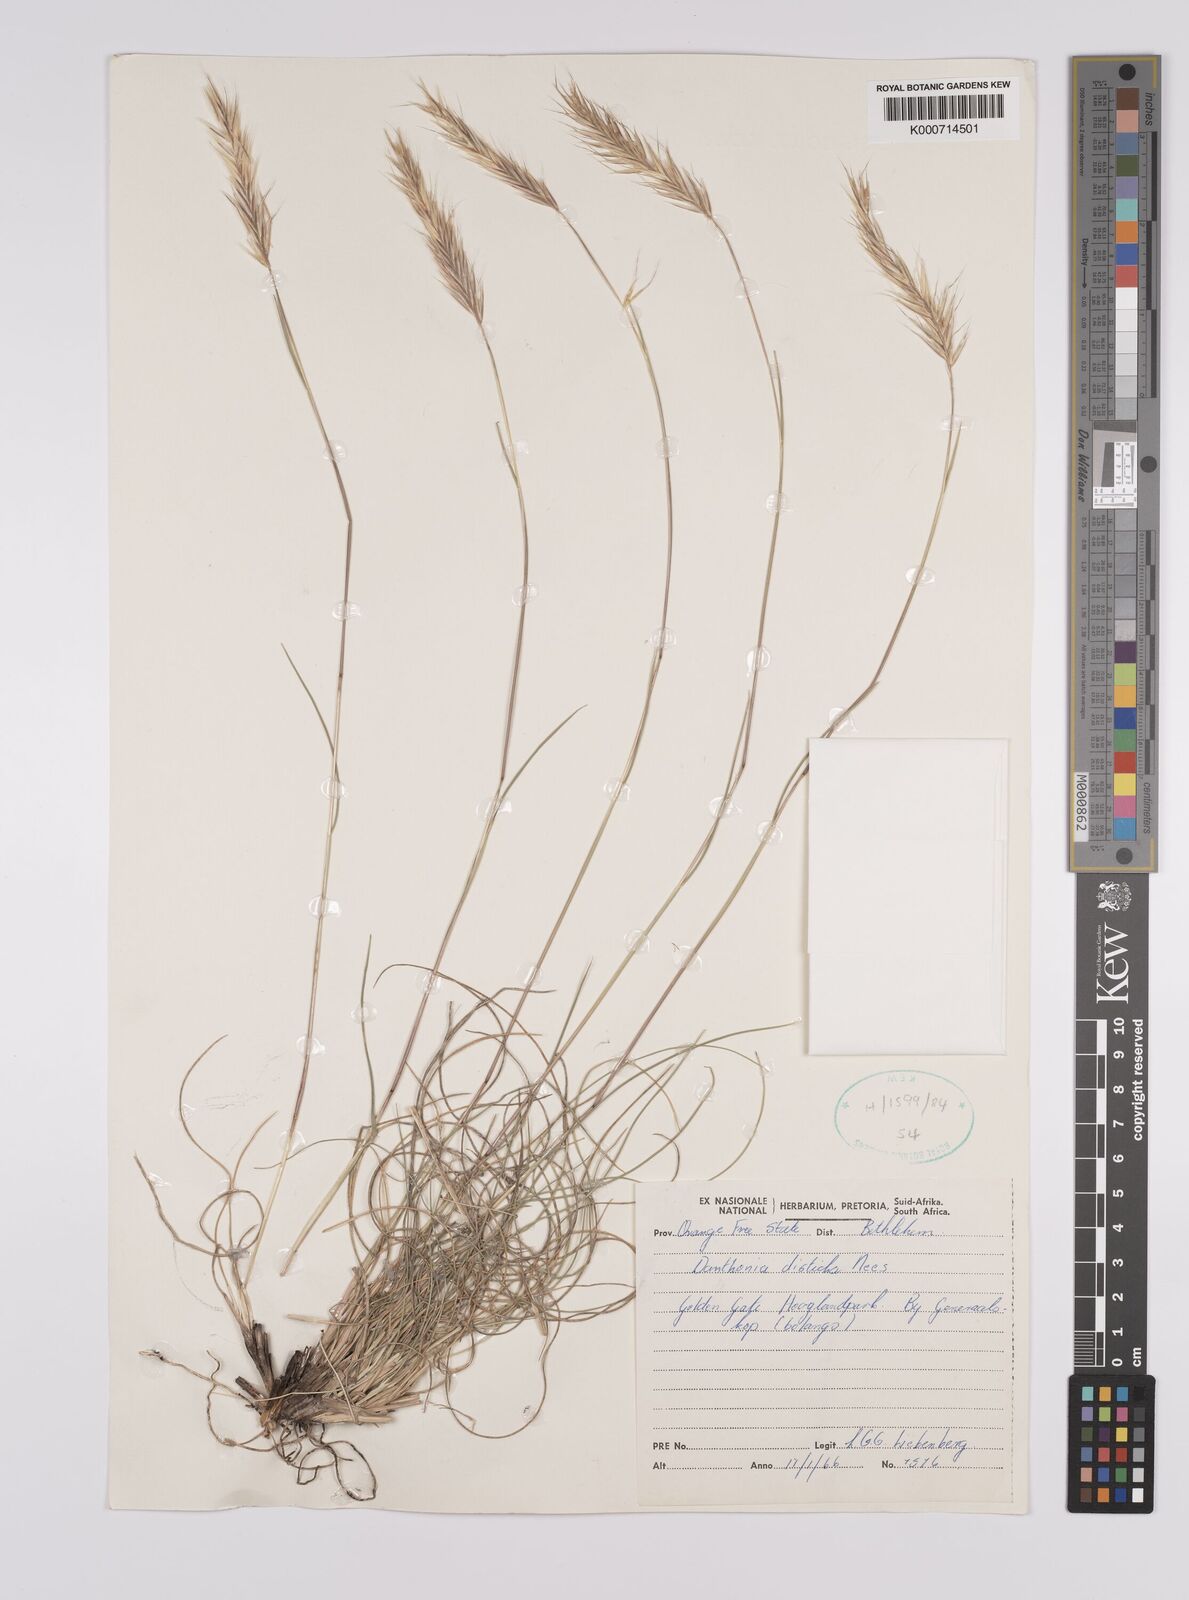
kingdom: Plantae
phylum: Tracheophyta
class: Liliopsida
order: Poales
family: Poaceae
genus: Tenaxia
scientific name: Tenaxia disticha
